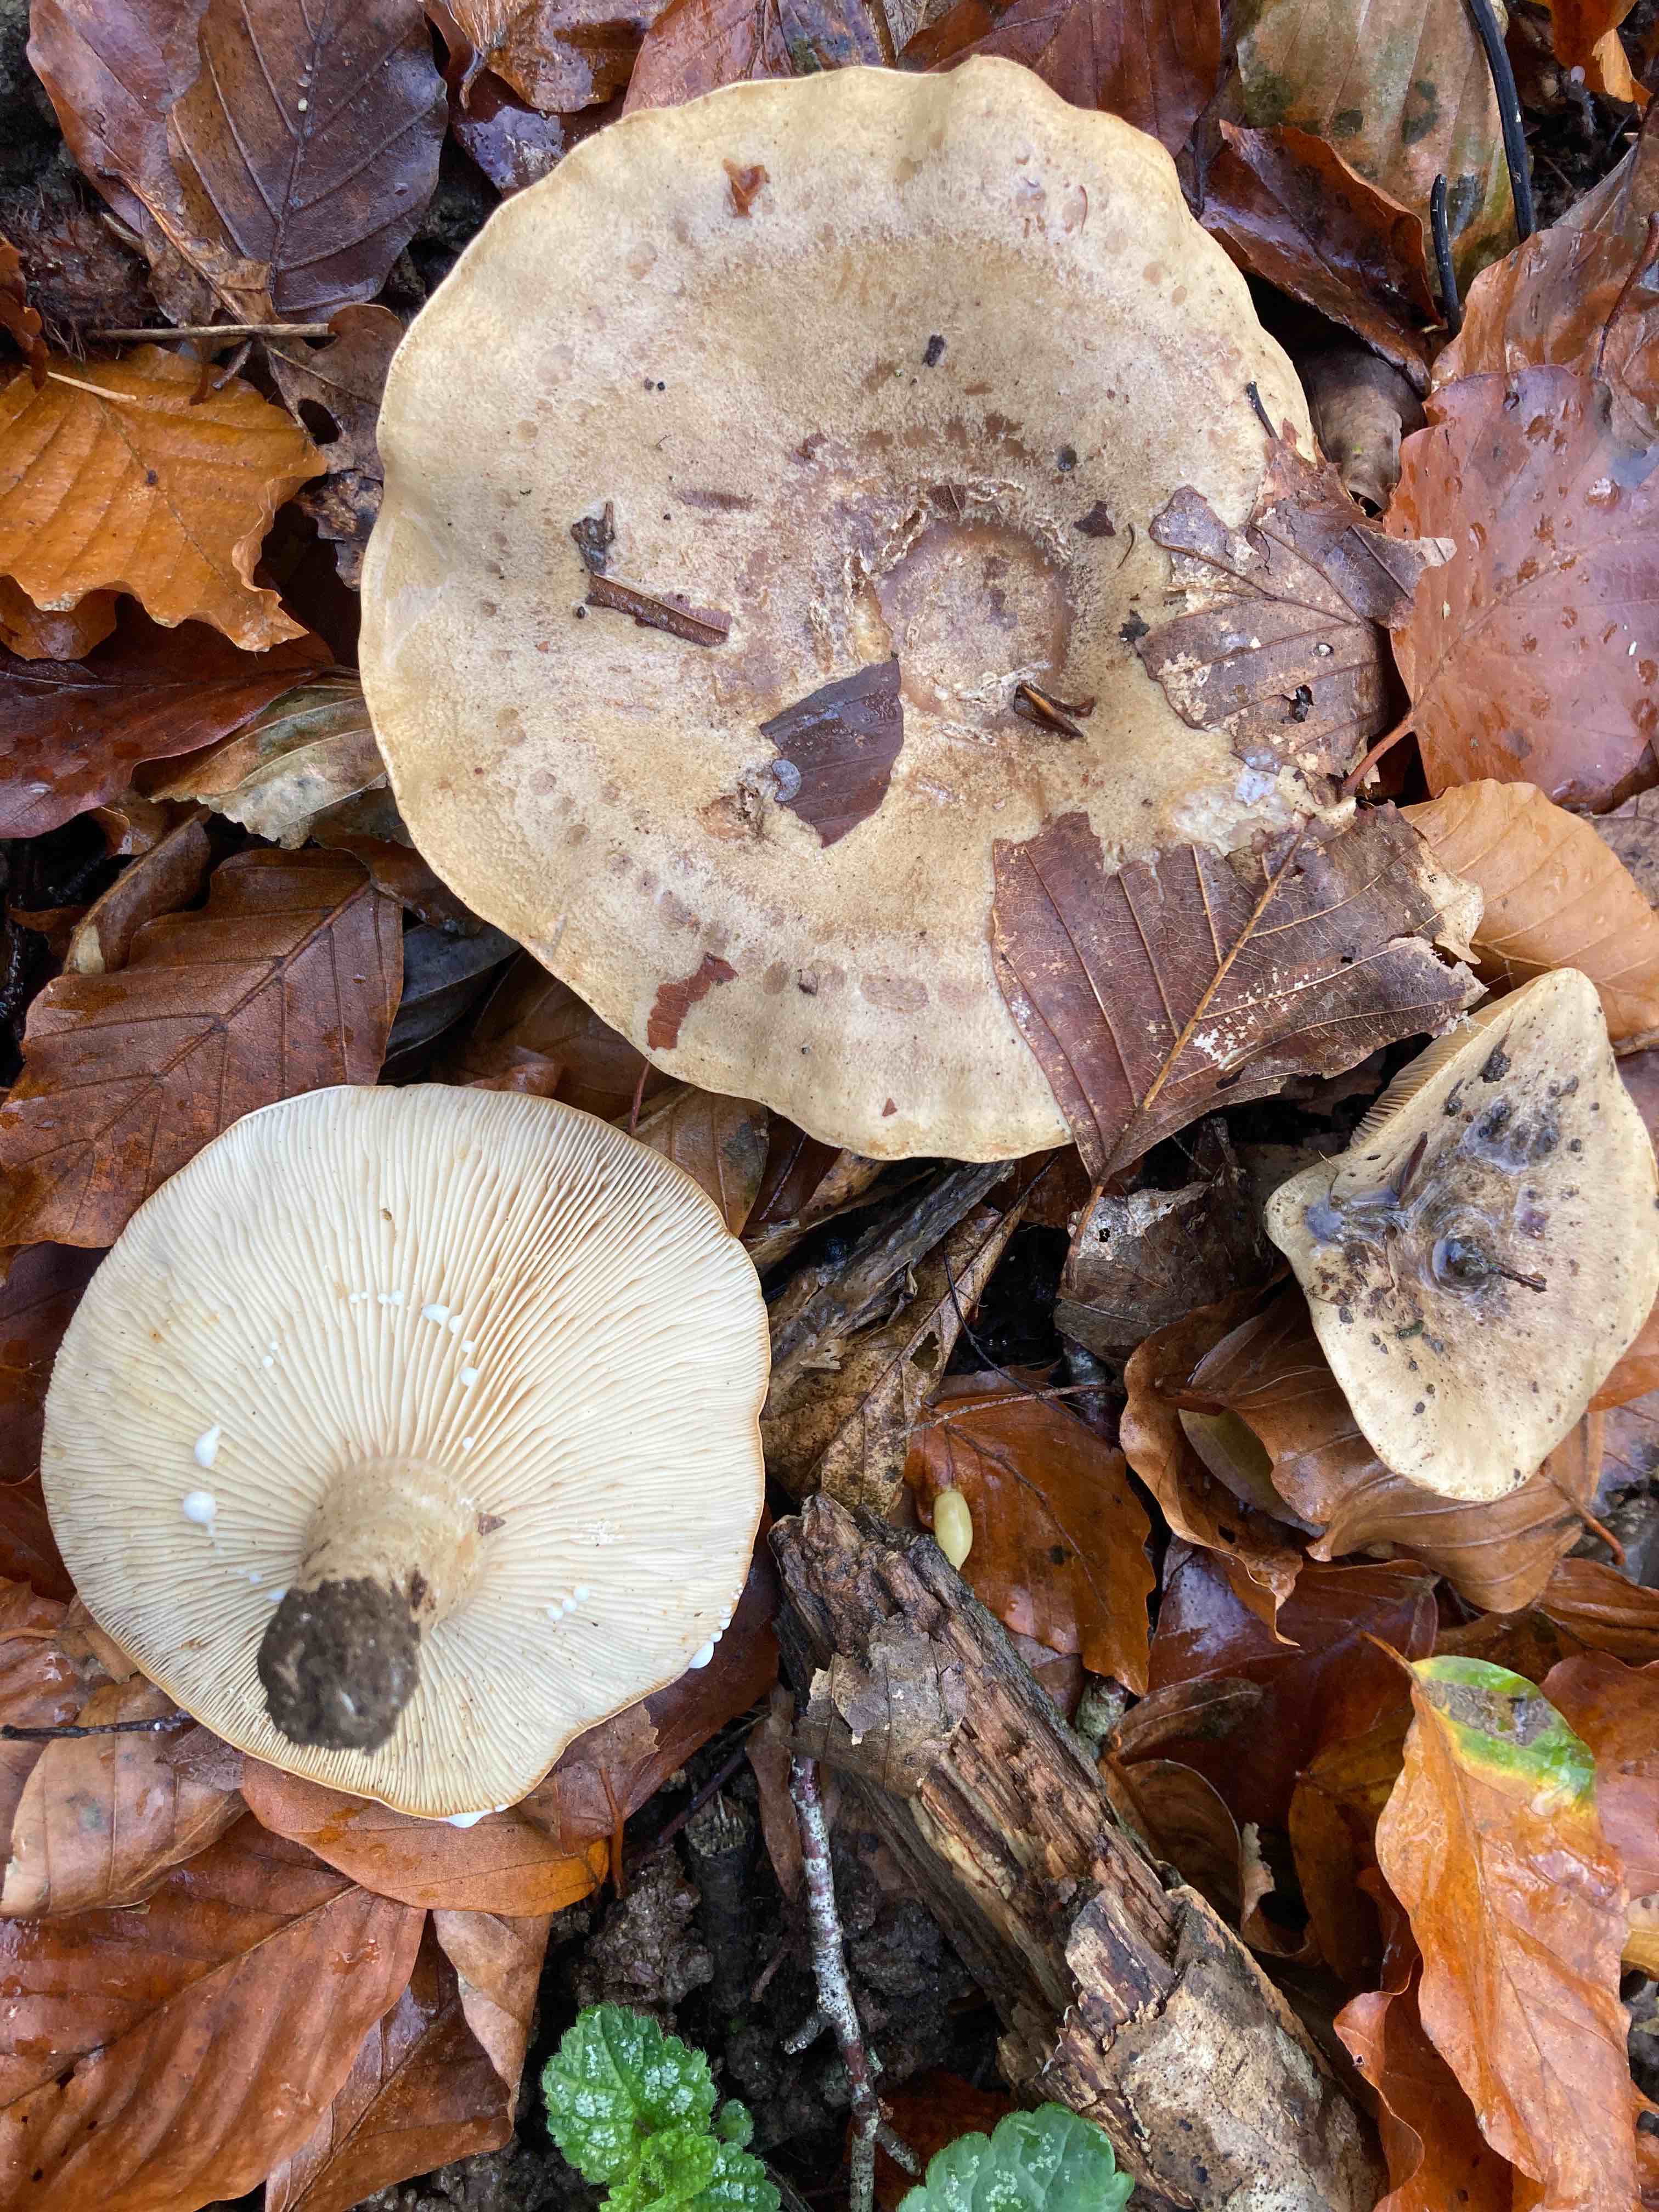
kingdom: Fungi
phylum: Basidiomycota
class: Agaricomycetes
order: Russulales
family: Russulaceae
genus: Lactarius
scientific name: Lactarius fluens
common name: lysrandet mælkehat
